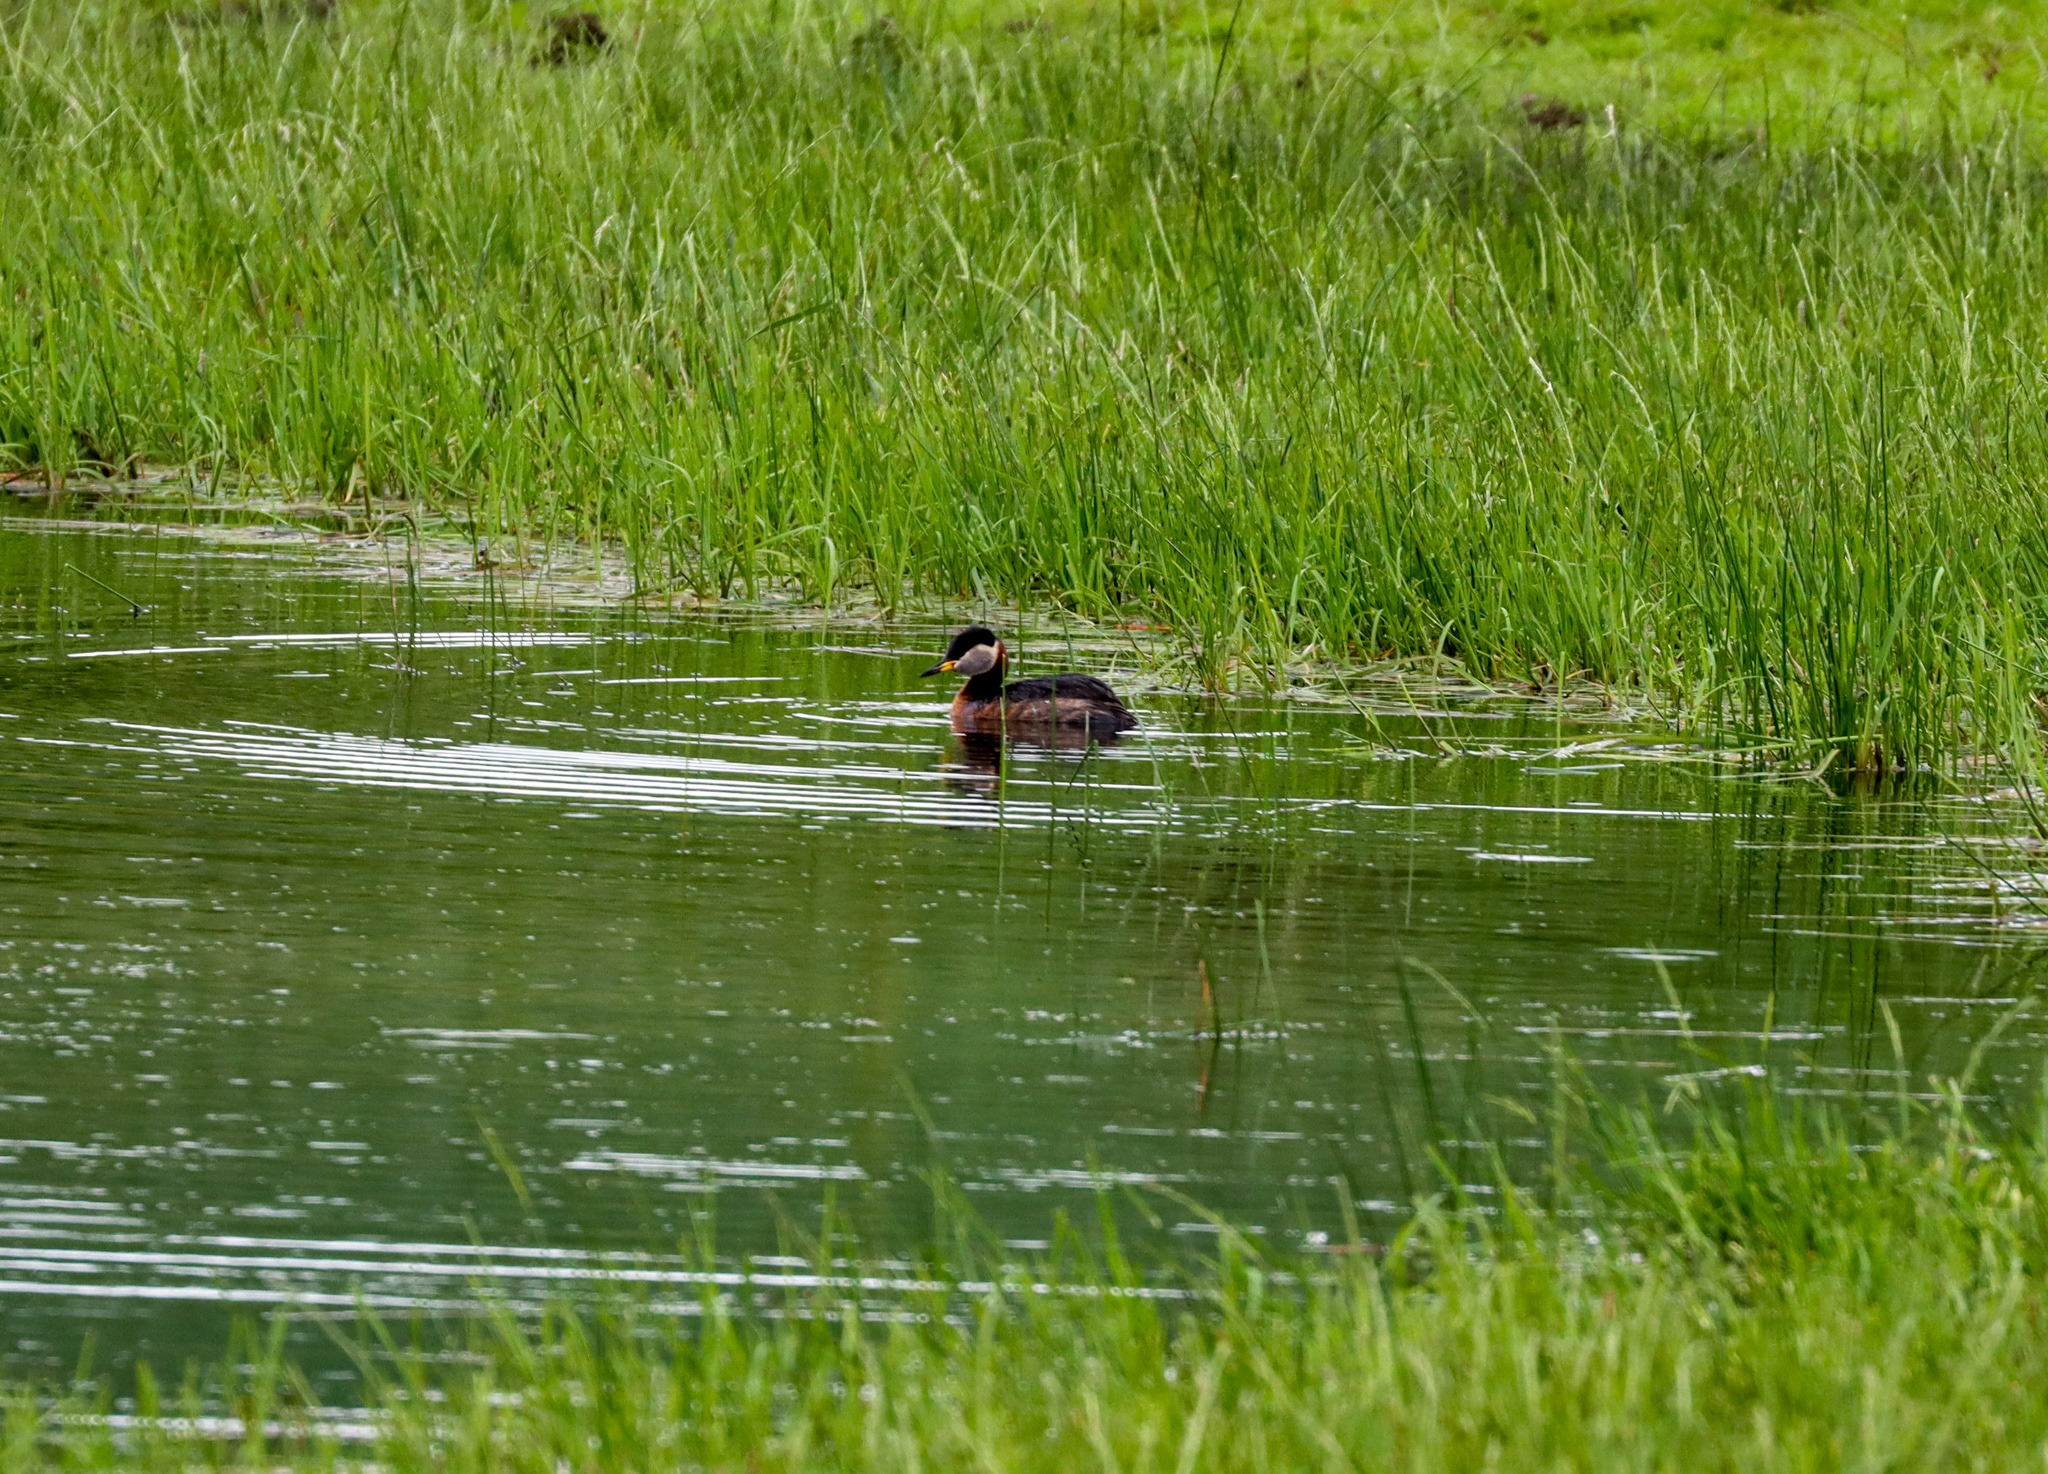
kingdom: Animalia
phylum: Chordata
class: Aves
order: Podicipediformes
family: Podicipedidae
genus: Podiceps
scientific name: Podiceps grisegena
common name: Gråstrubet lappedykker
